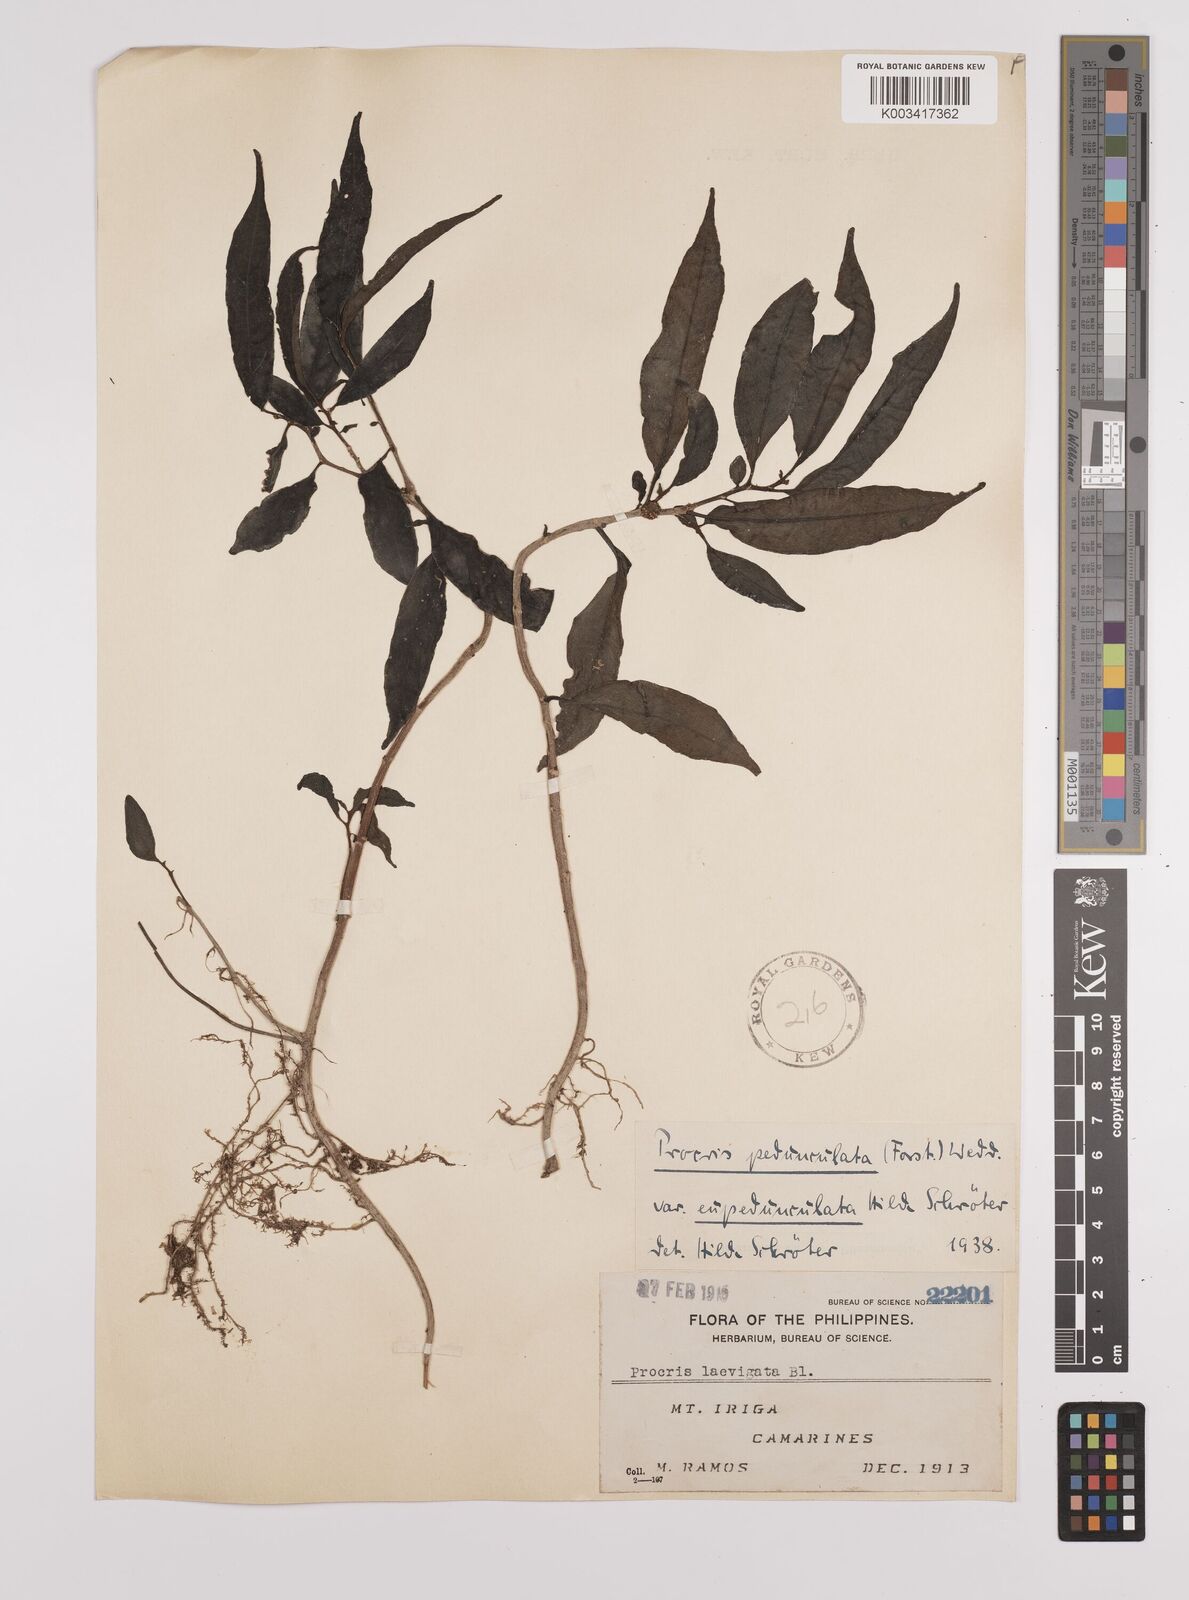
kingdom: Plantae
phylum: Tracheophyta
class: Magnoliopsida
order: Rosales
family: Urticaceae
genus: Procris
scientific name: Procris pedunculata
